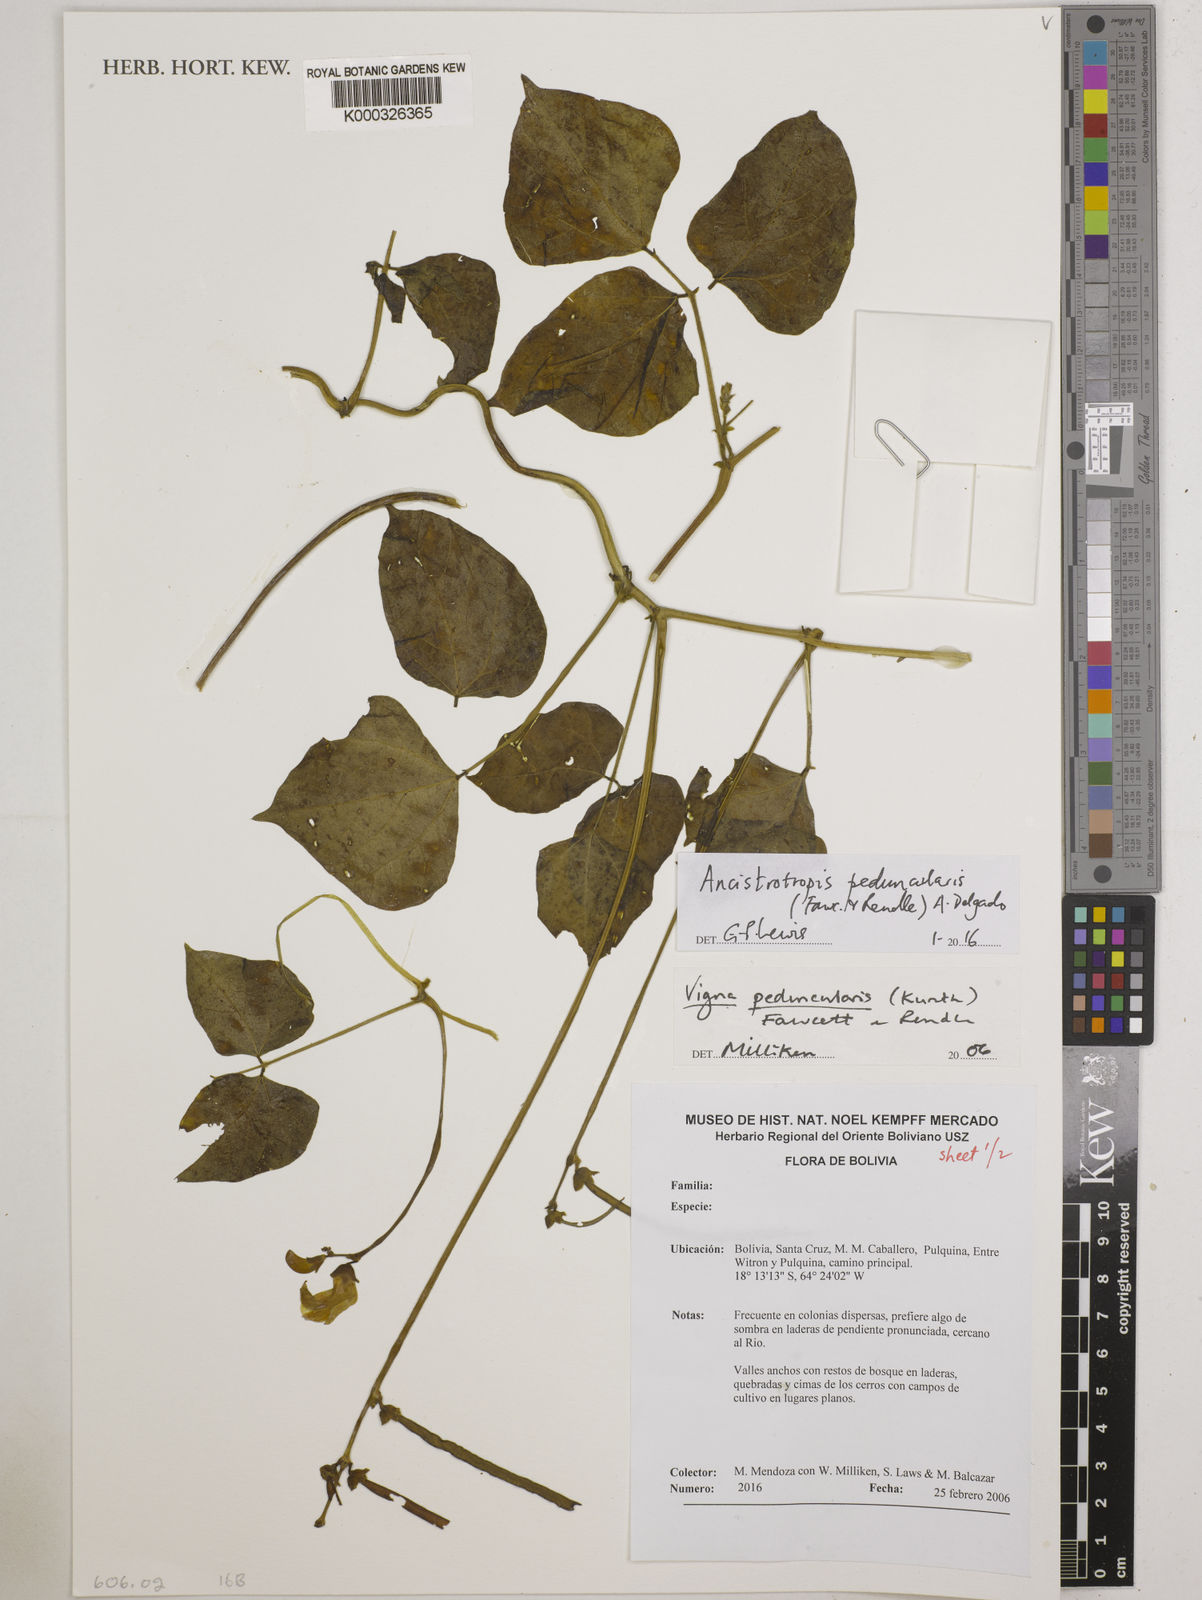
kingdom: Plantae
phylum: Tracheophyta
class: Magnoliopsida
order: Fabales
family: Fabaceae
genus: Ancistrotropis
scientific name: Ancistrotropis peduncularis
